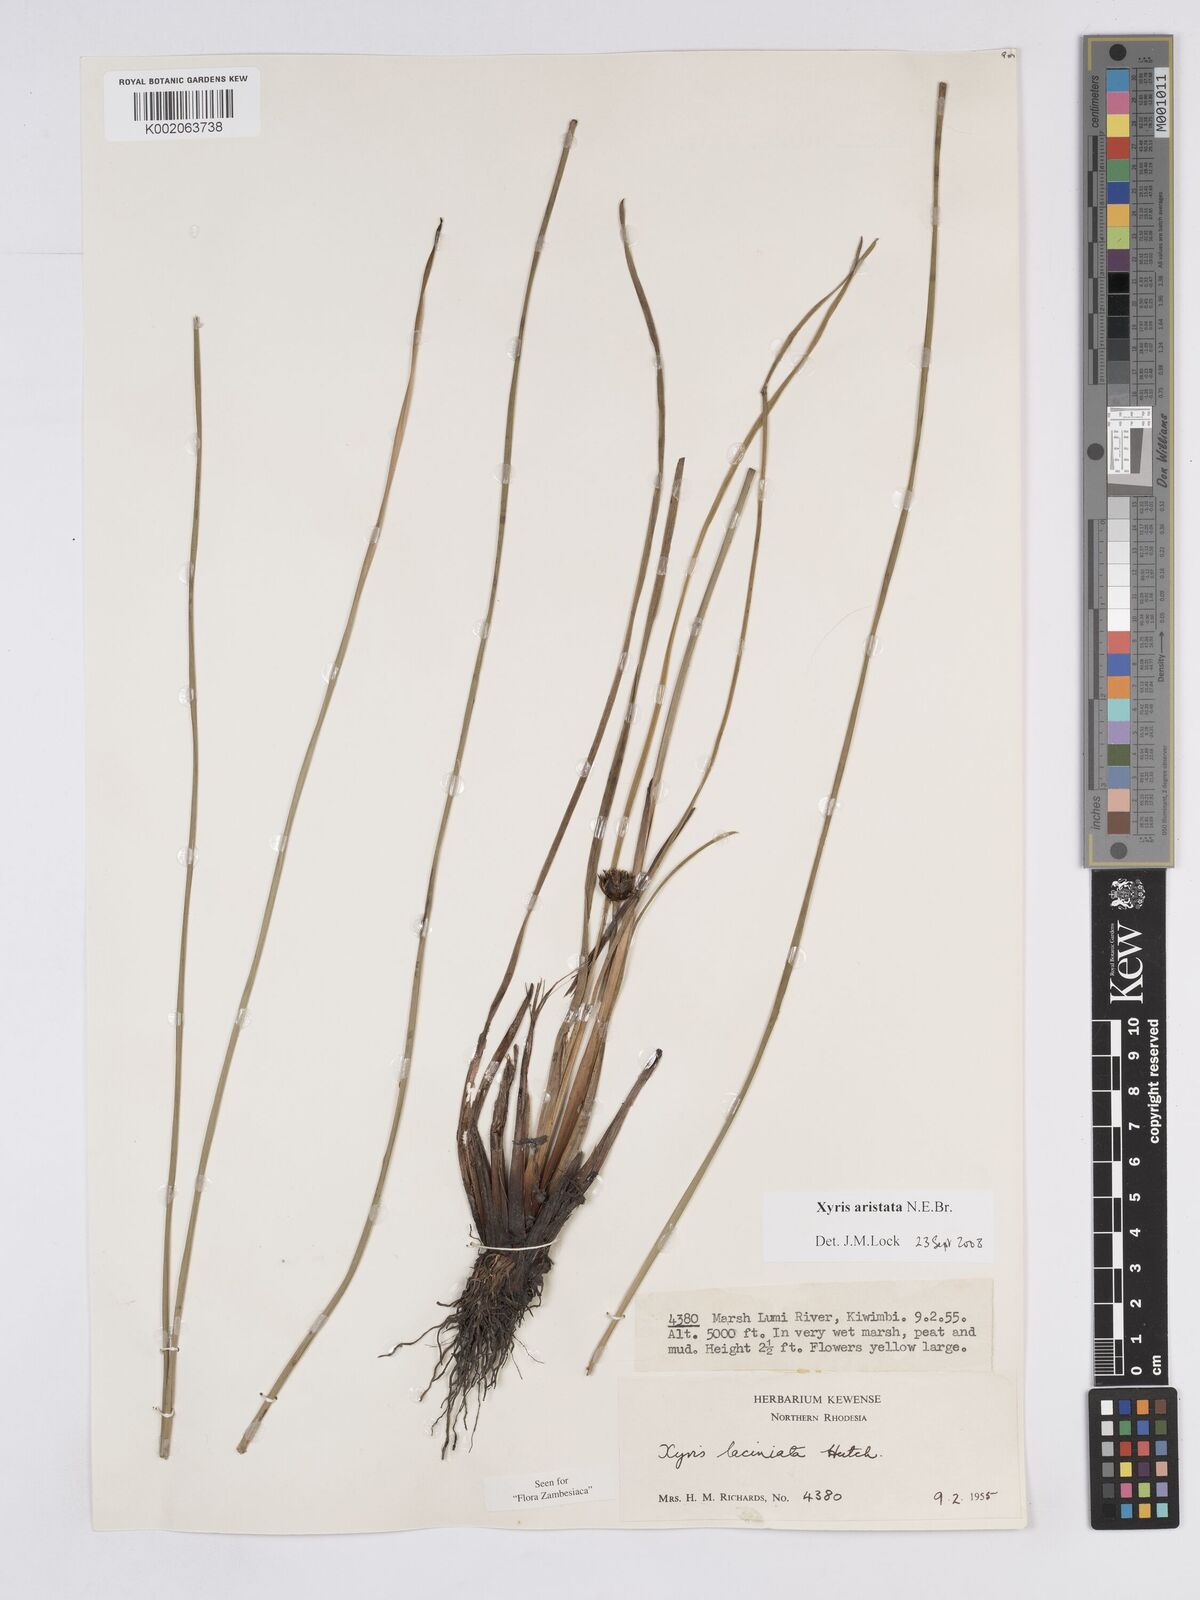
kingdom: Plantae
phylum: Tracheophyta
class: Liliopsida
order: Poales
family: Xyridaceae
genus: Xyris
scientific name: Xyris aristata
